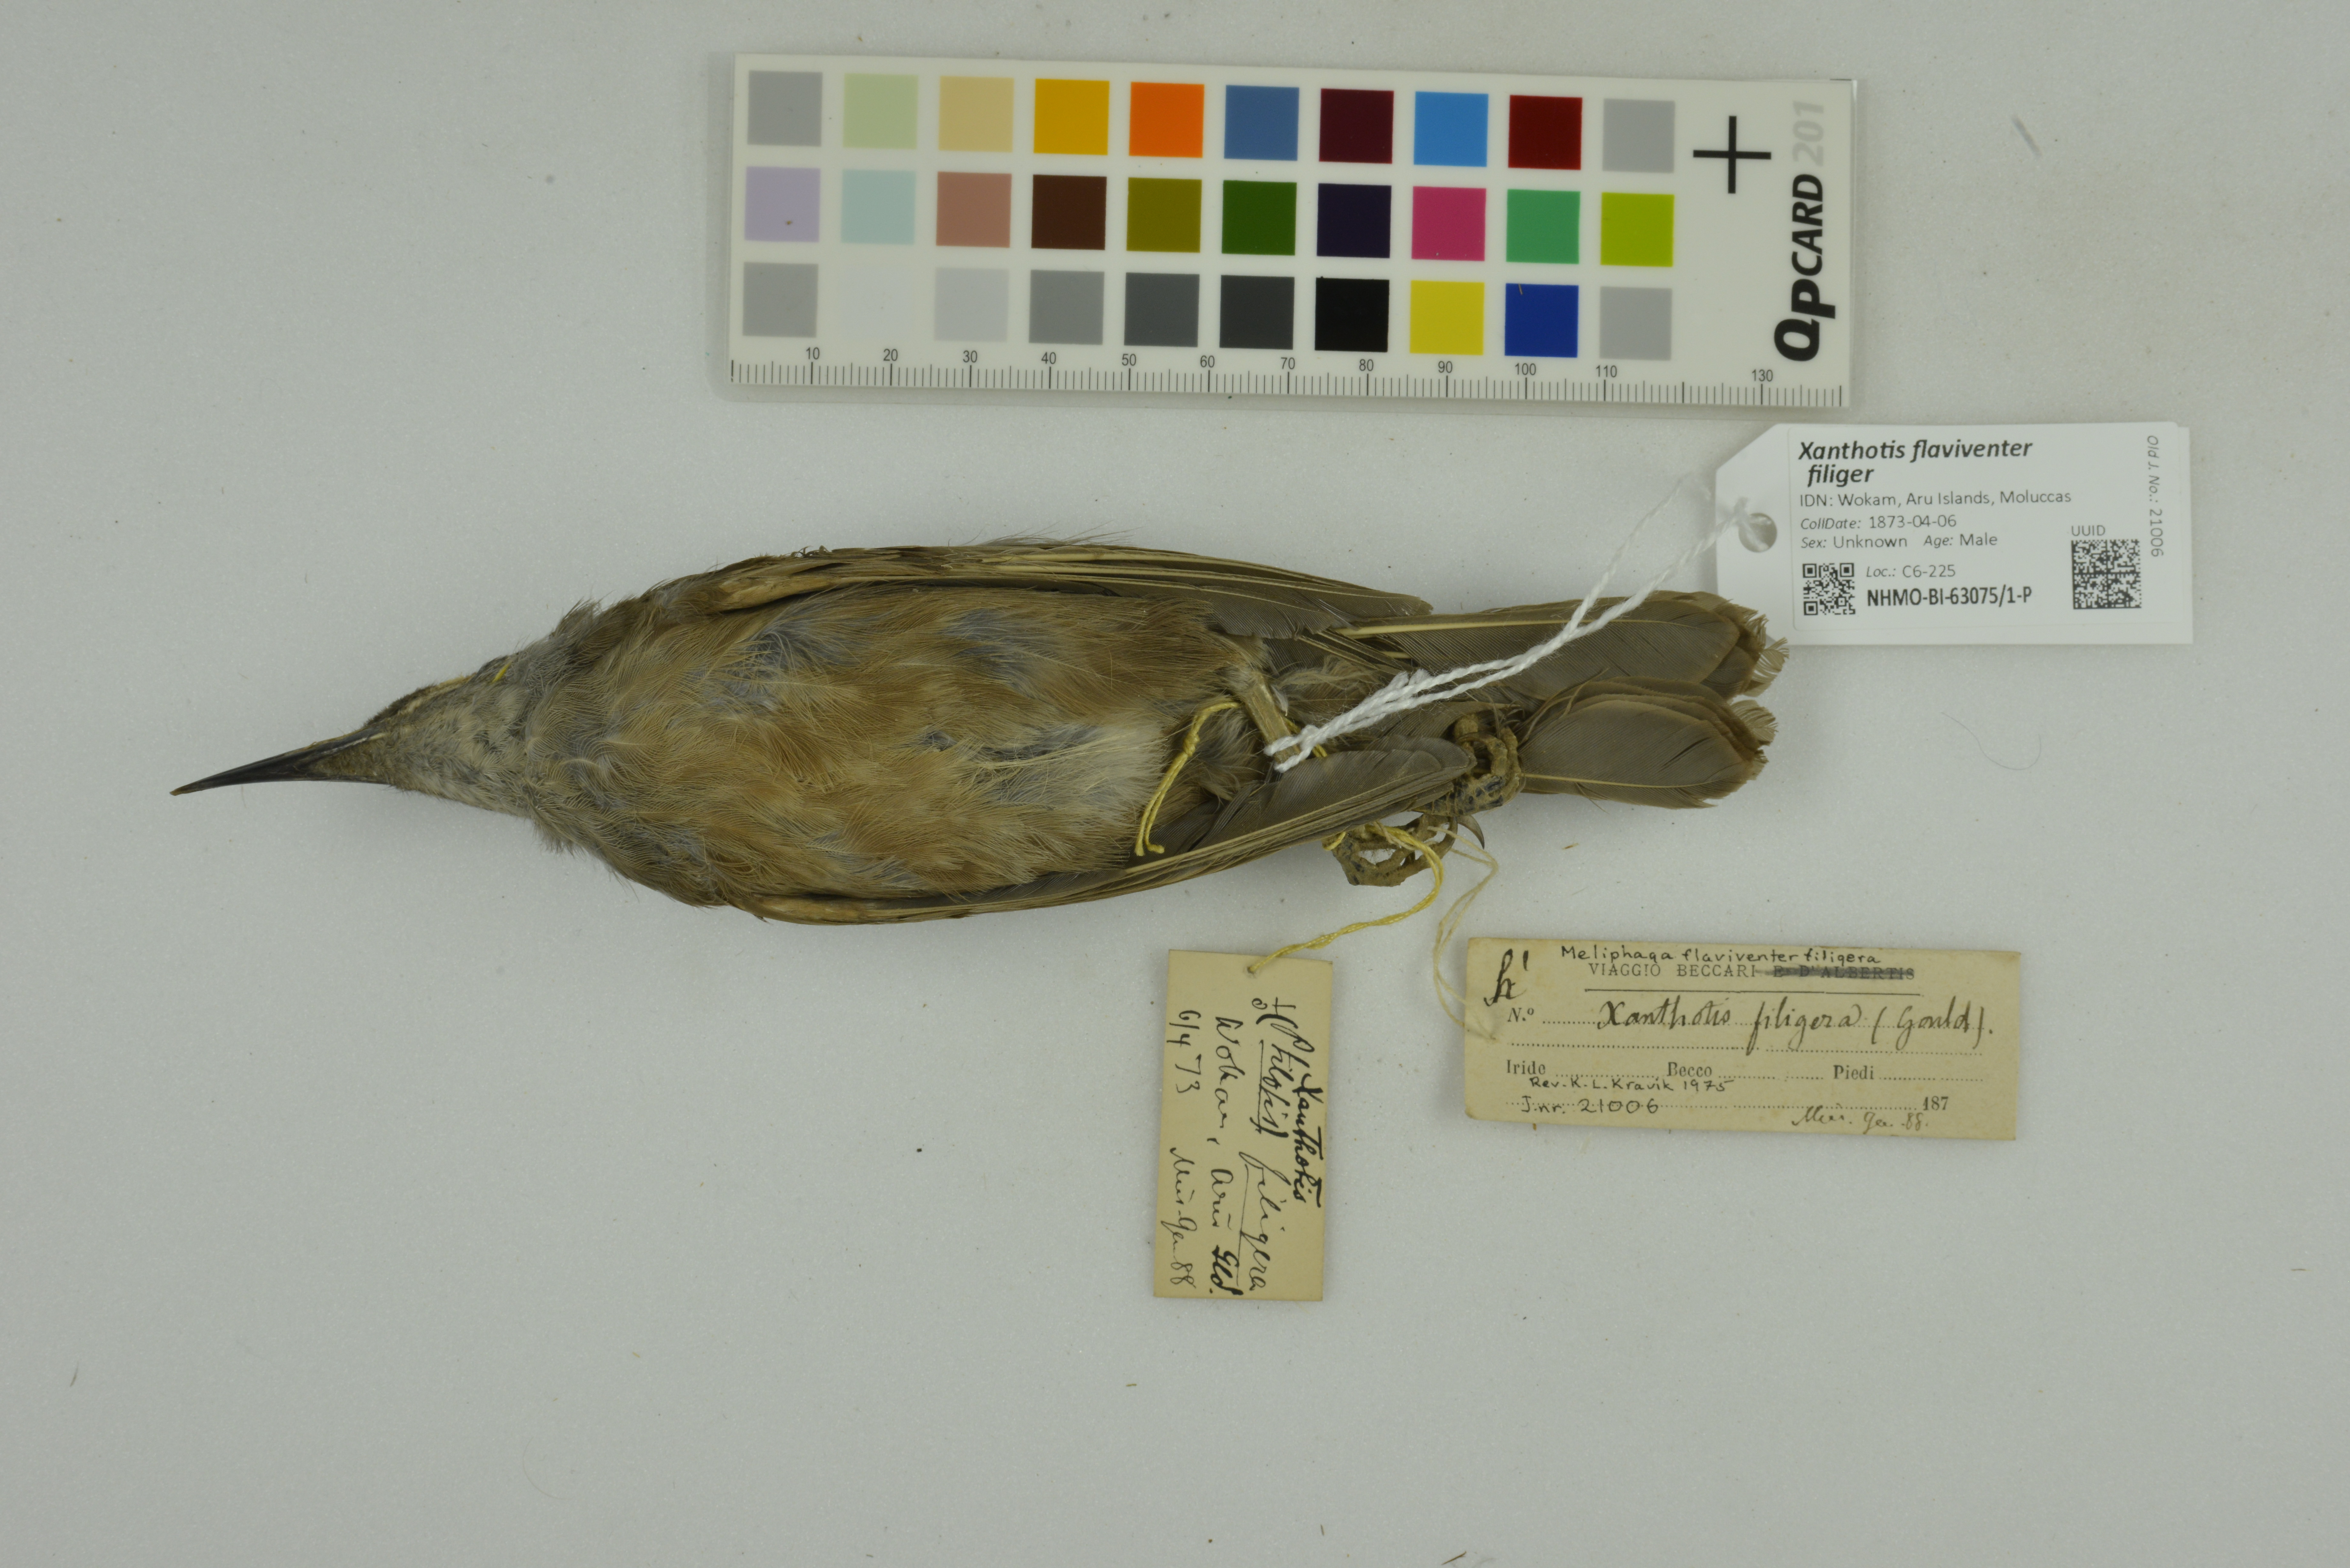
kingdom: Animalia
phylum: Chordata
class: Aves
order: Passeriformes
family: Meliphagidae
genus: Xanthotis
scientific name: Xanthotis flaviventer
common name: Tawny-breasted honeyeater
